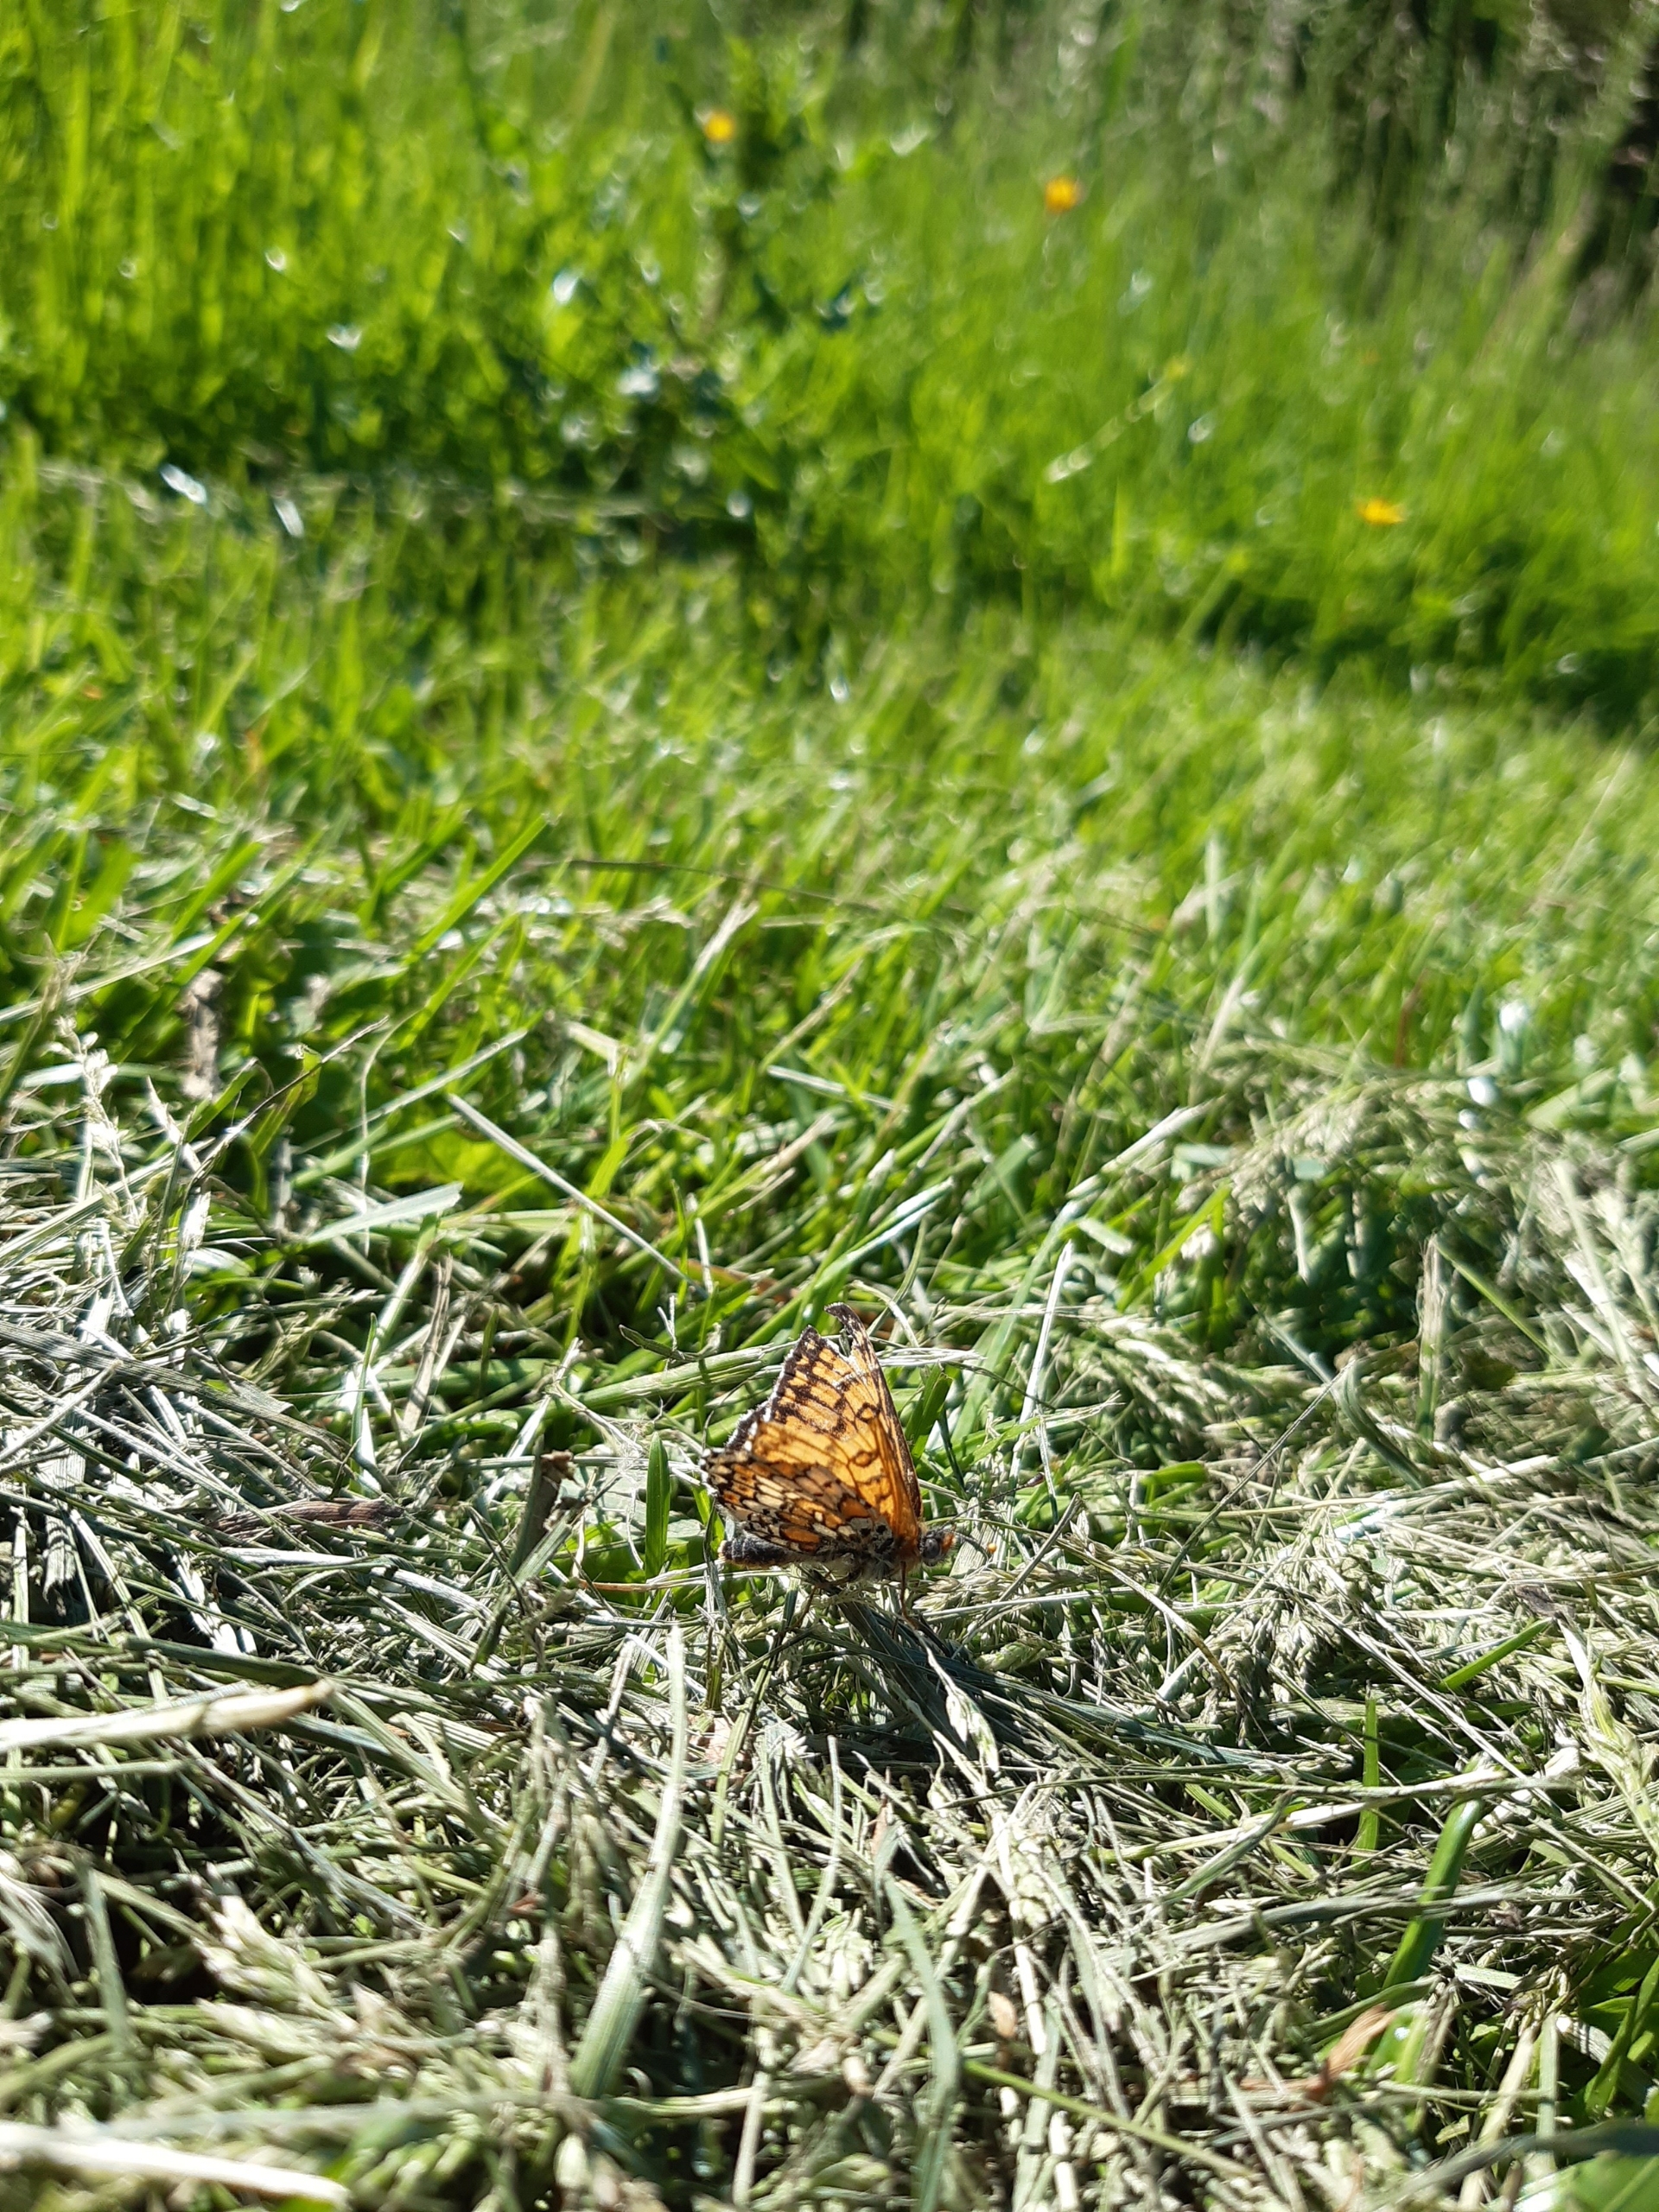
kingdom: Animalia
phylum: Arthropoda
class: Insecta
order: Lepidoptera
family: Nymphalidae
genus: Melitaea
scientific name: Melitaea cinxia
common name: Okkergul pletvinge
